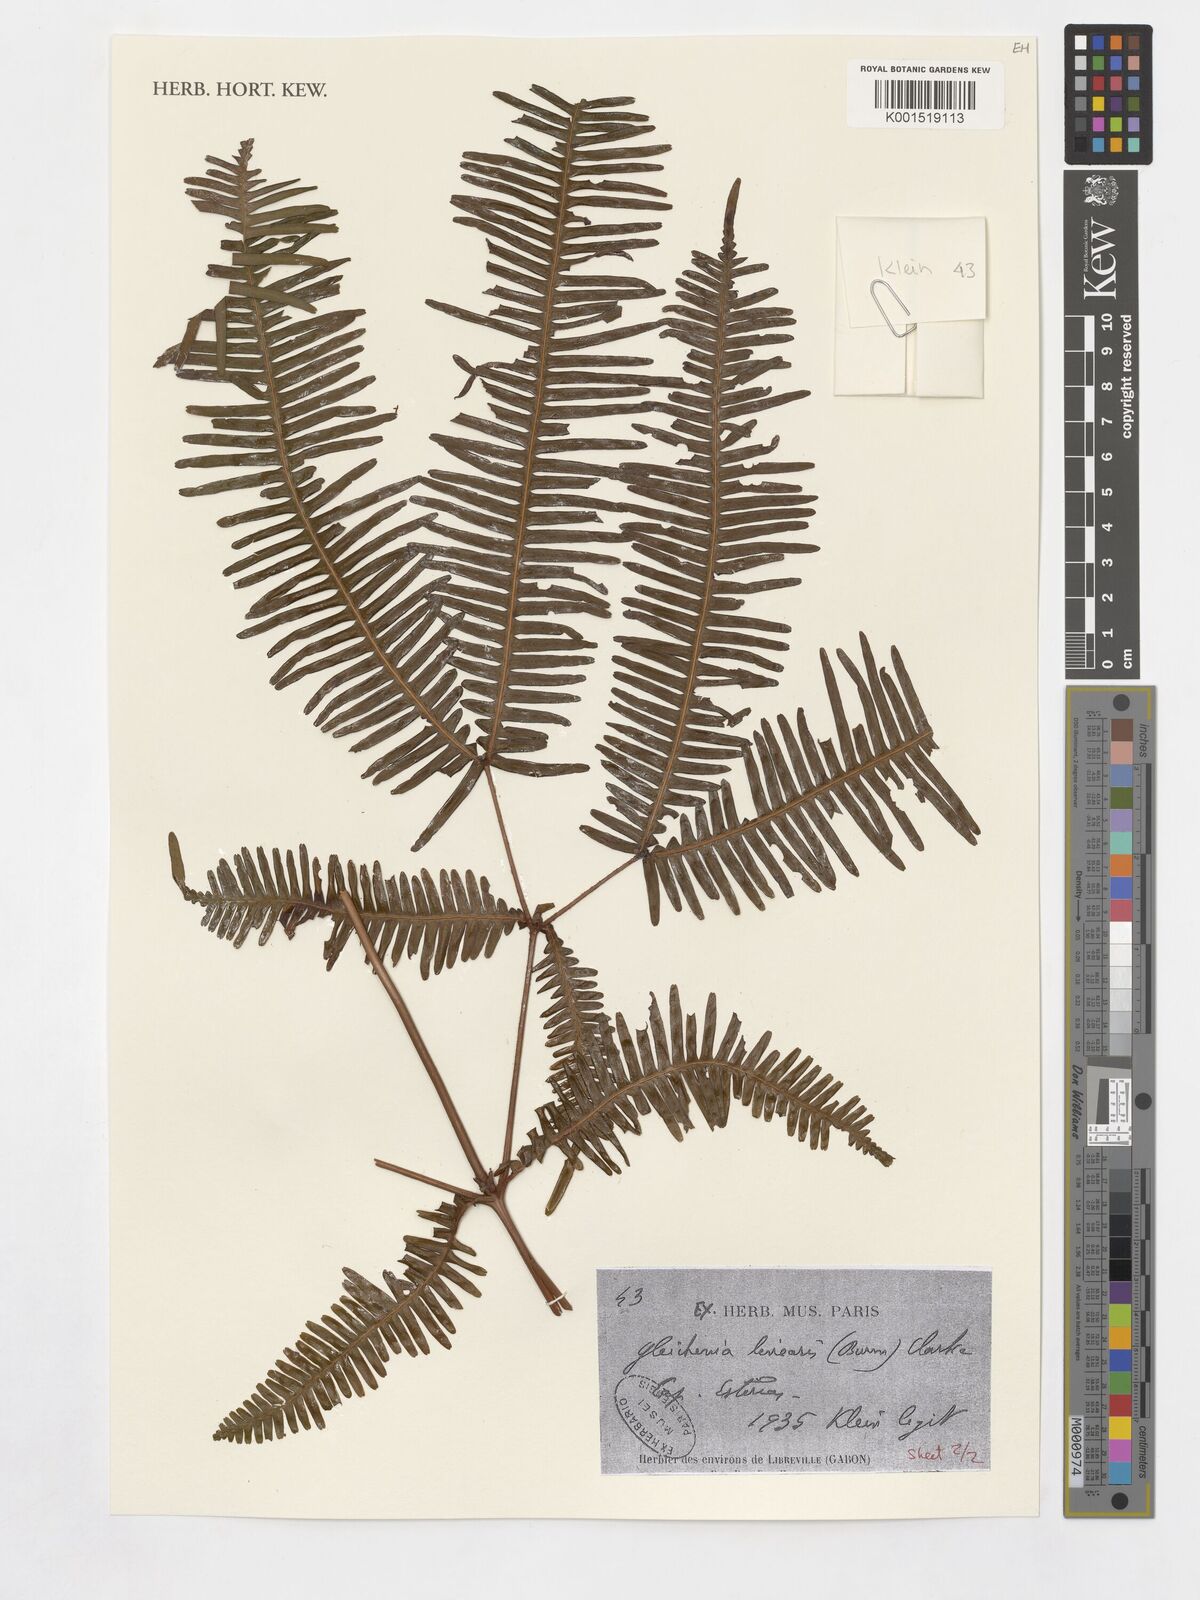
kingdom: Plantae
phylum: Tracheophyta
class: Polypodiopsida
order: Gleicheniales
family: Gleicheniaceae
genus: Dicranopteris
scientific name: Dicranopteris linearis
